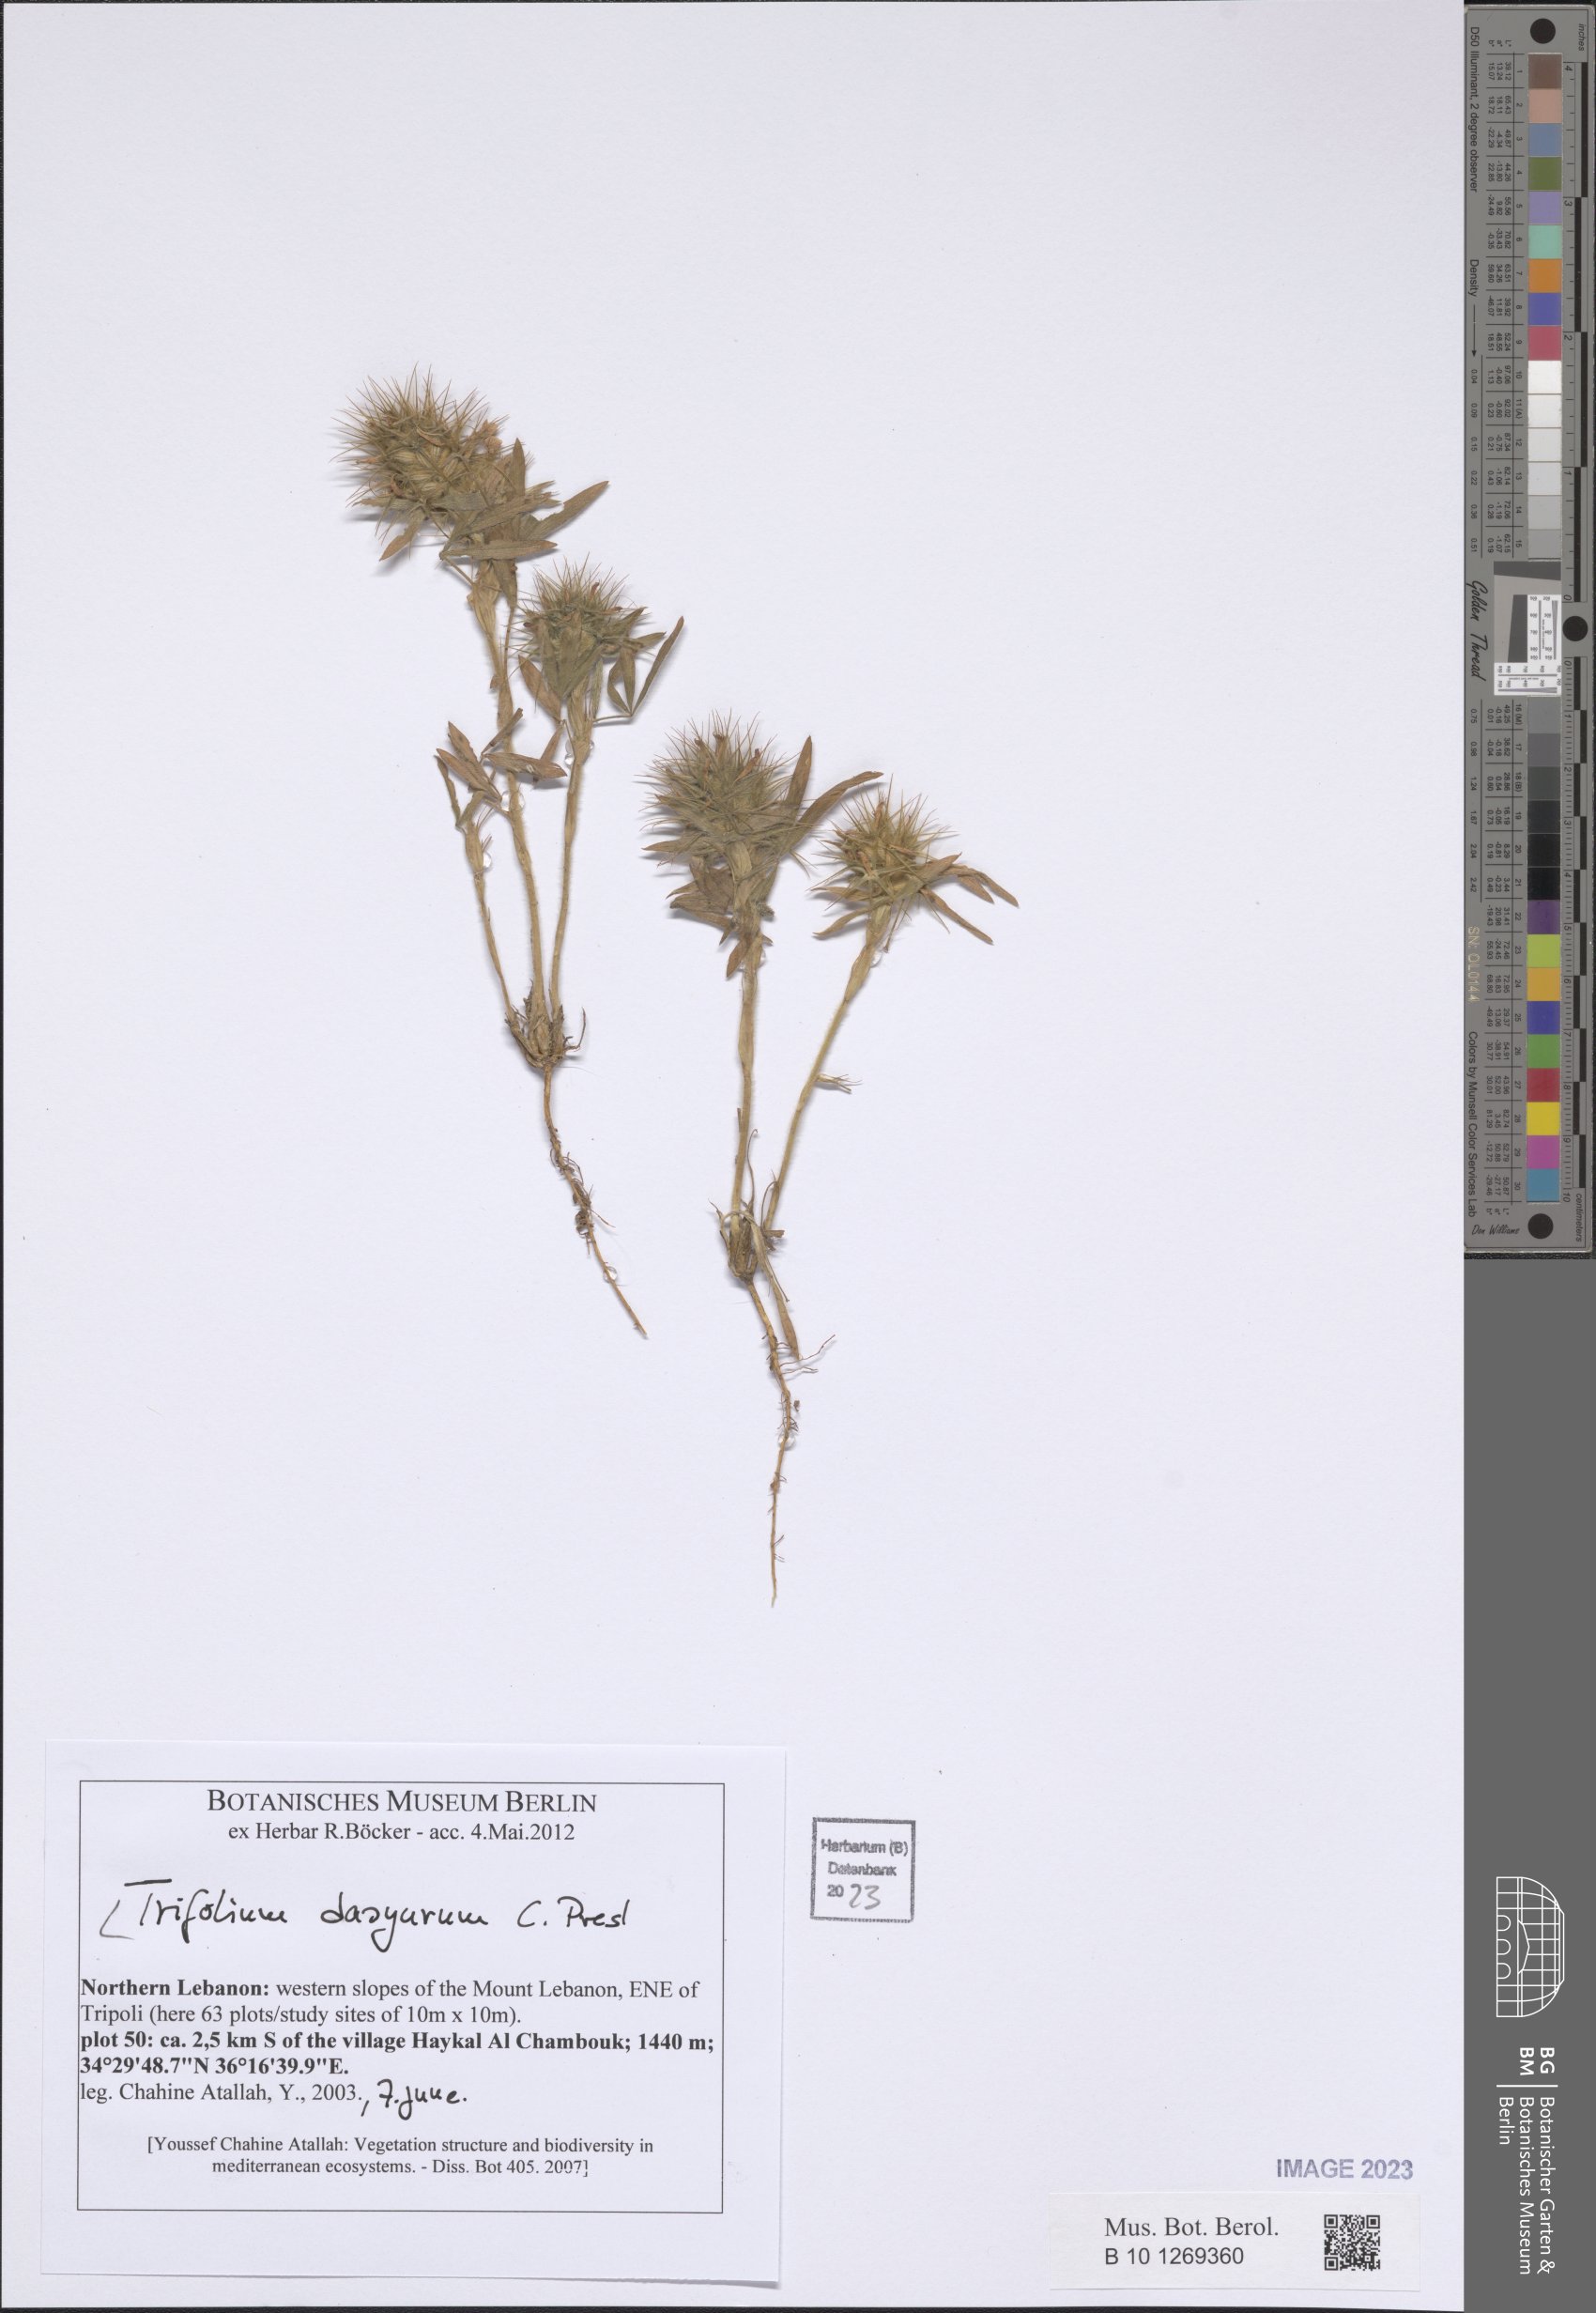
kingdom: Plantae
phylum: Tracheophyta
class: Magnoliopsida
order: Fabales
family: Fabaceae
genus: Trifolium
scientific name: Trifolium dasyurum
